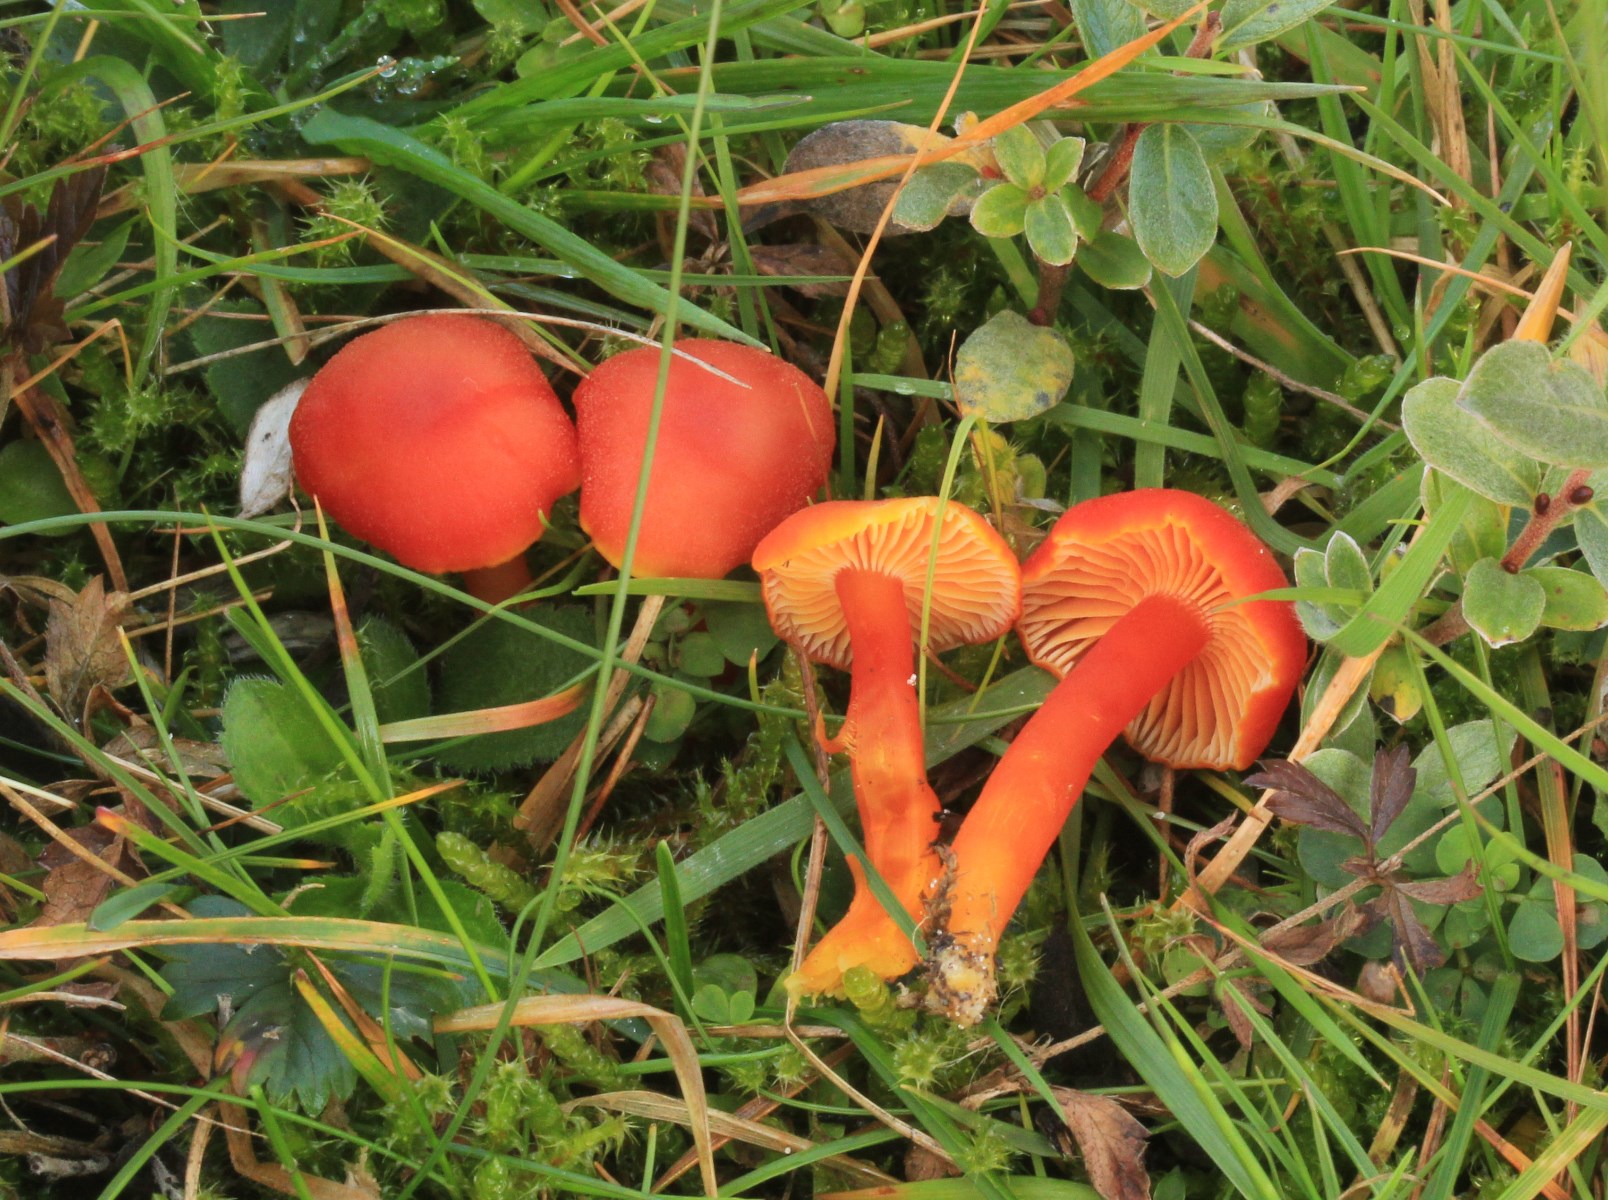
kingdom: Fungi
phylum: Basidiomycota
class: Agaricomycetes
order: Agaricales
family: Hygrophoraceae
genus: Hygrocybe
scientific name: Hygrocybe miniata
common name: mønje-vokshat
